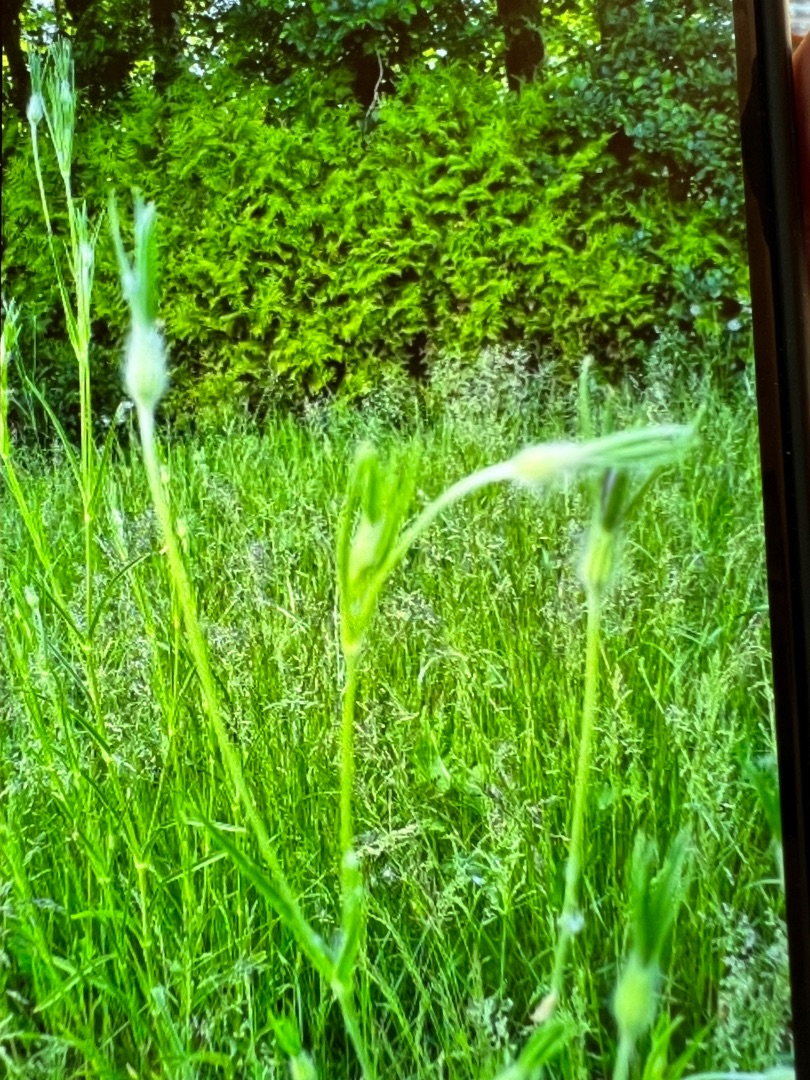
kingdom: Plantae
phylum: Tracheophyta
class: Magnoliopsida
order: Caryophyllales
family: Caryophyllaceae
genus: Agrostemma
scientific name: Agrostemma githago
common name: Klinte
